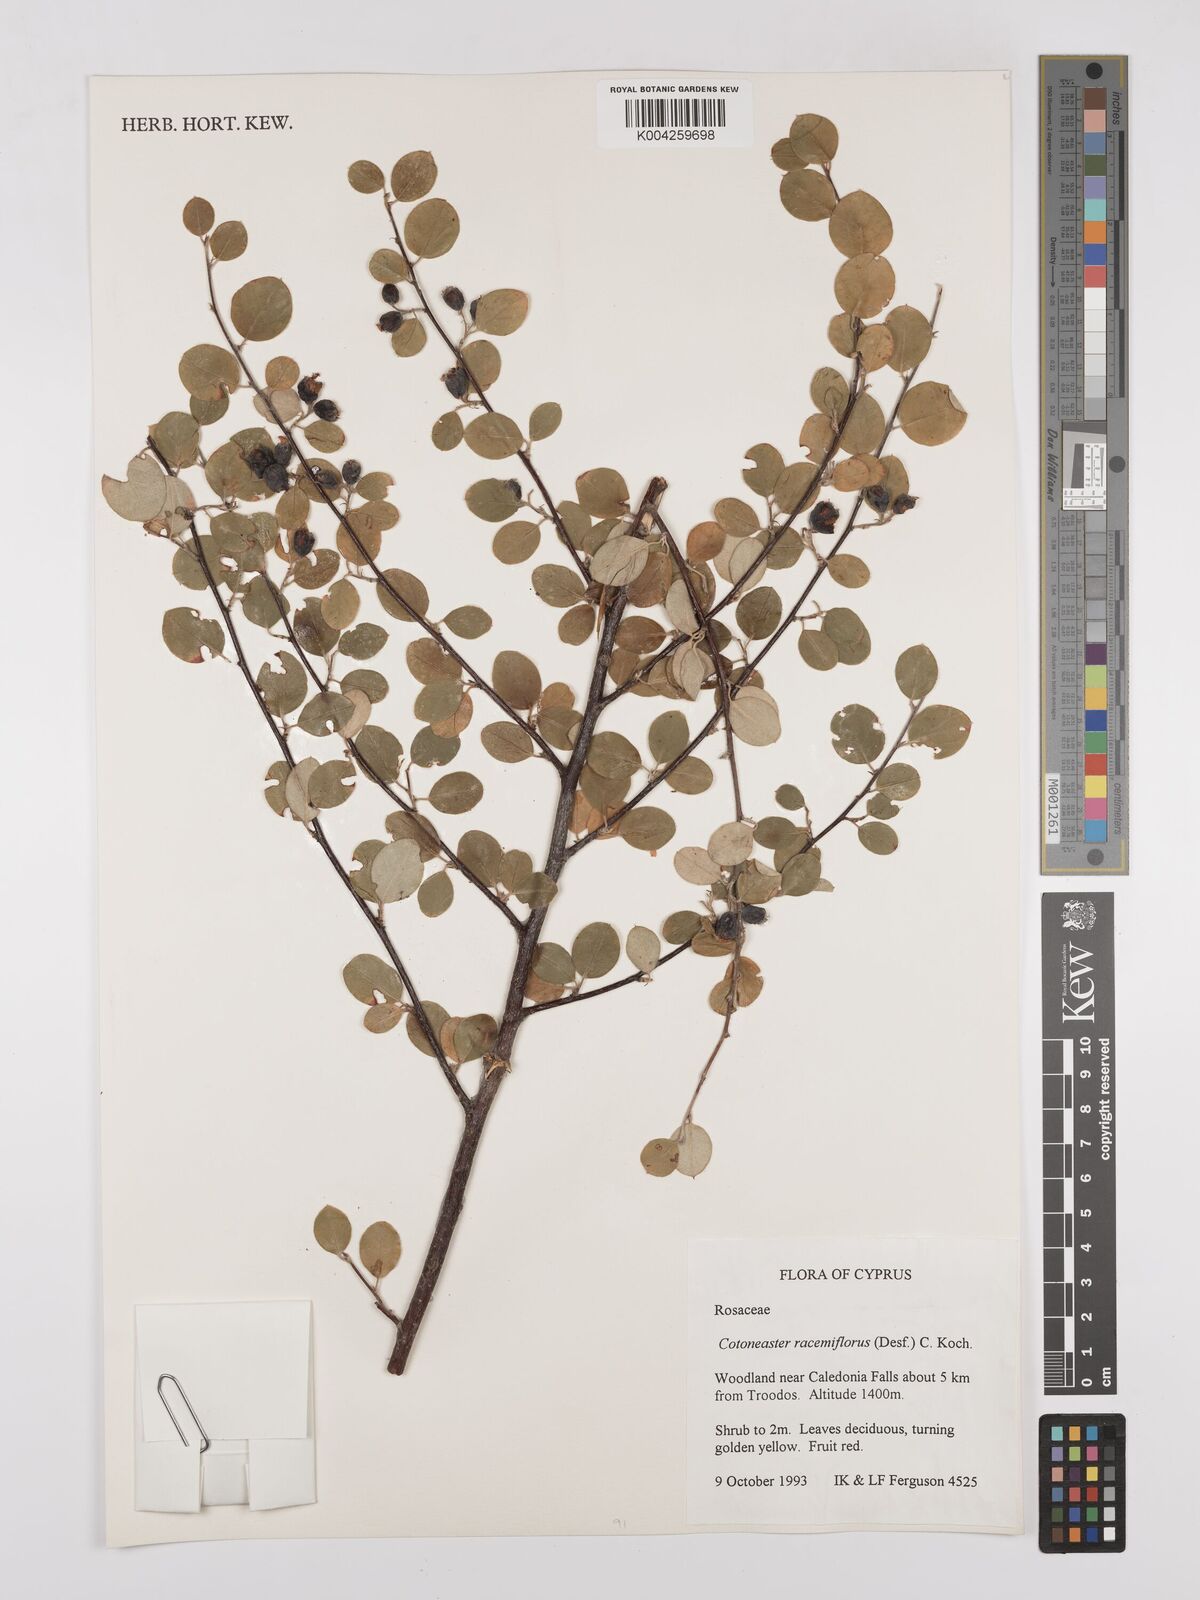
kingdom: Plantae
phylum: Tracheophyta
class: Magnoliopsida
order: Rosales
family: Rosaceae
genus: Cotoneaster
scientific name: Cotoneaster racemiflorus
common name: Cluster-flower cotoneaster
